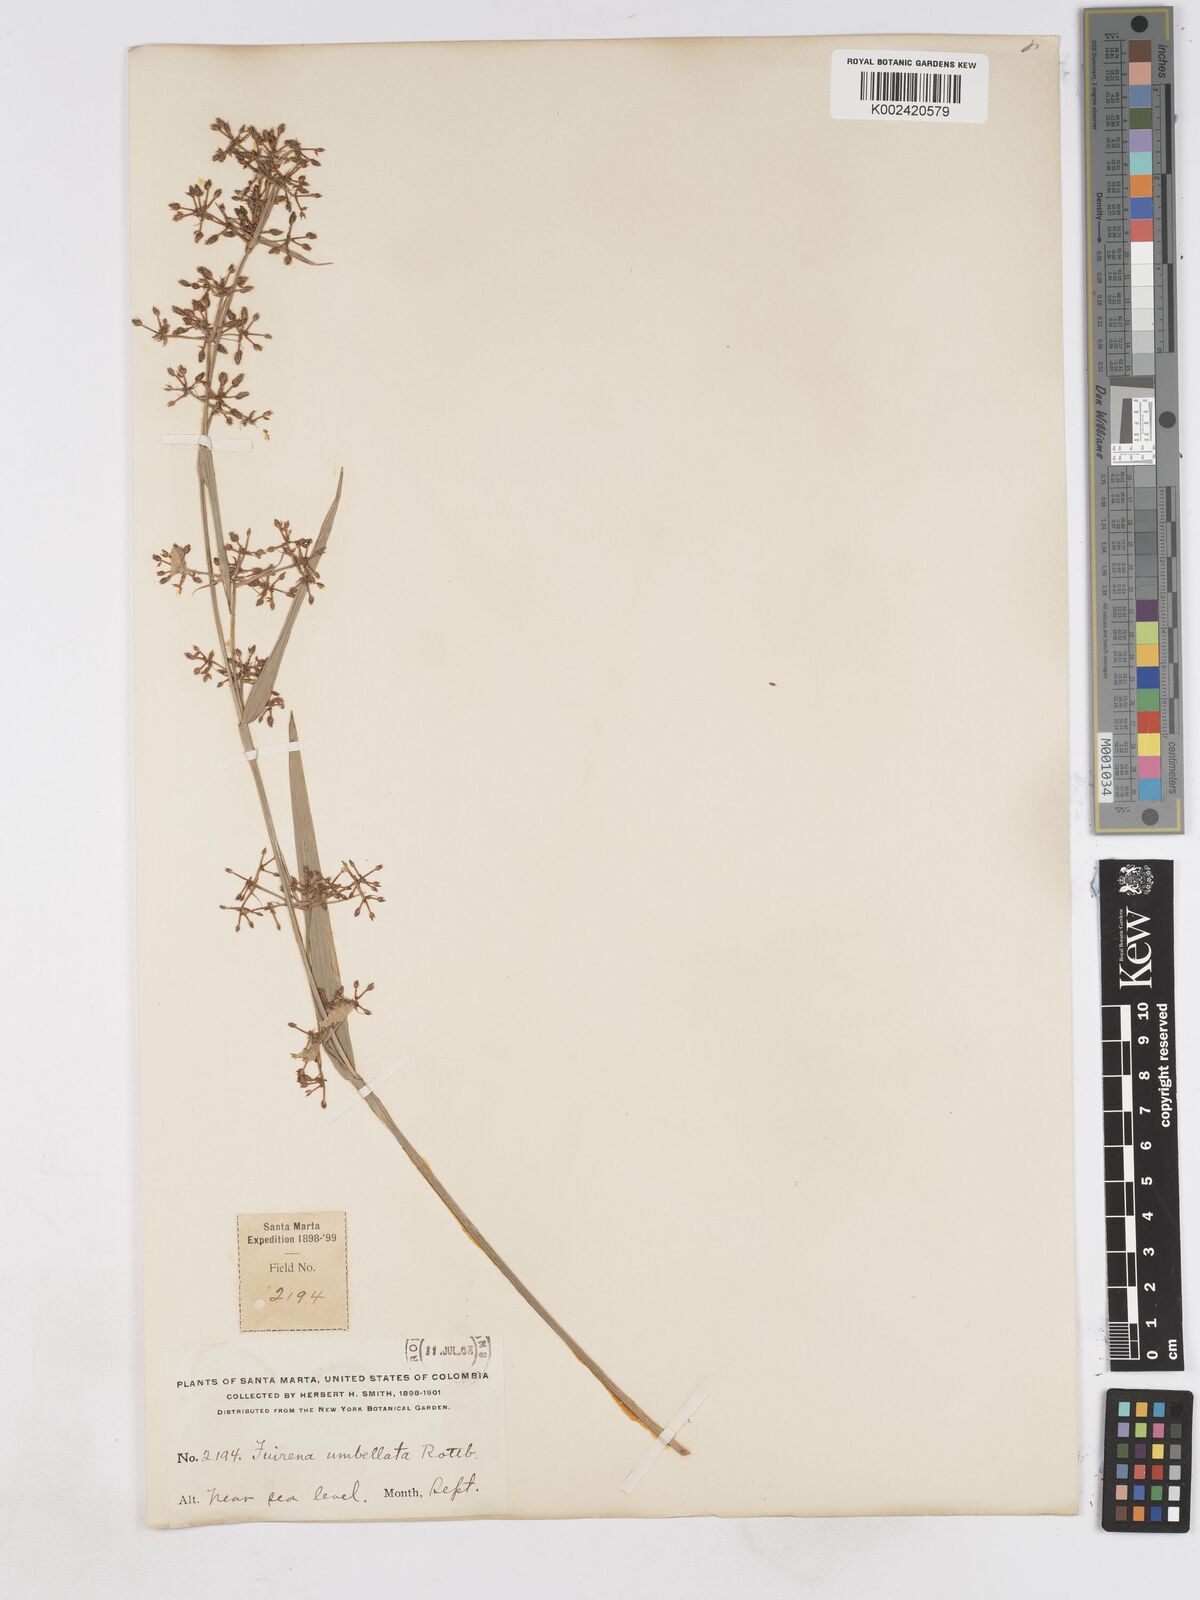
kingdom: Plantae
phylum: Tracheophyta
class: Liliopsida
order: Poales
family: Cyperaceae
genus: Fuirena
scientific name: Fuirena umbellata
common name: Yefen
